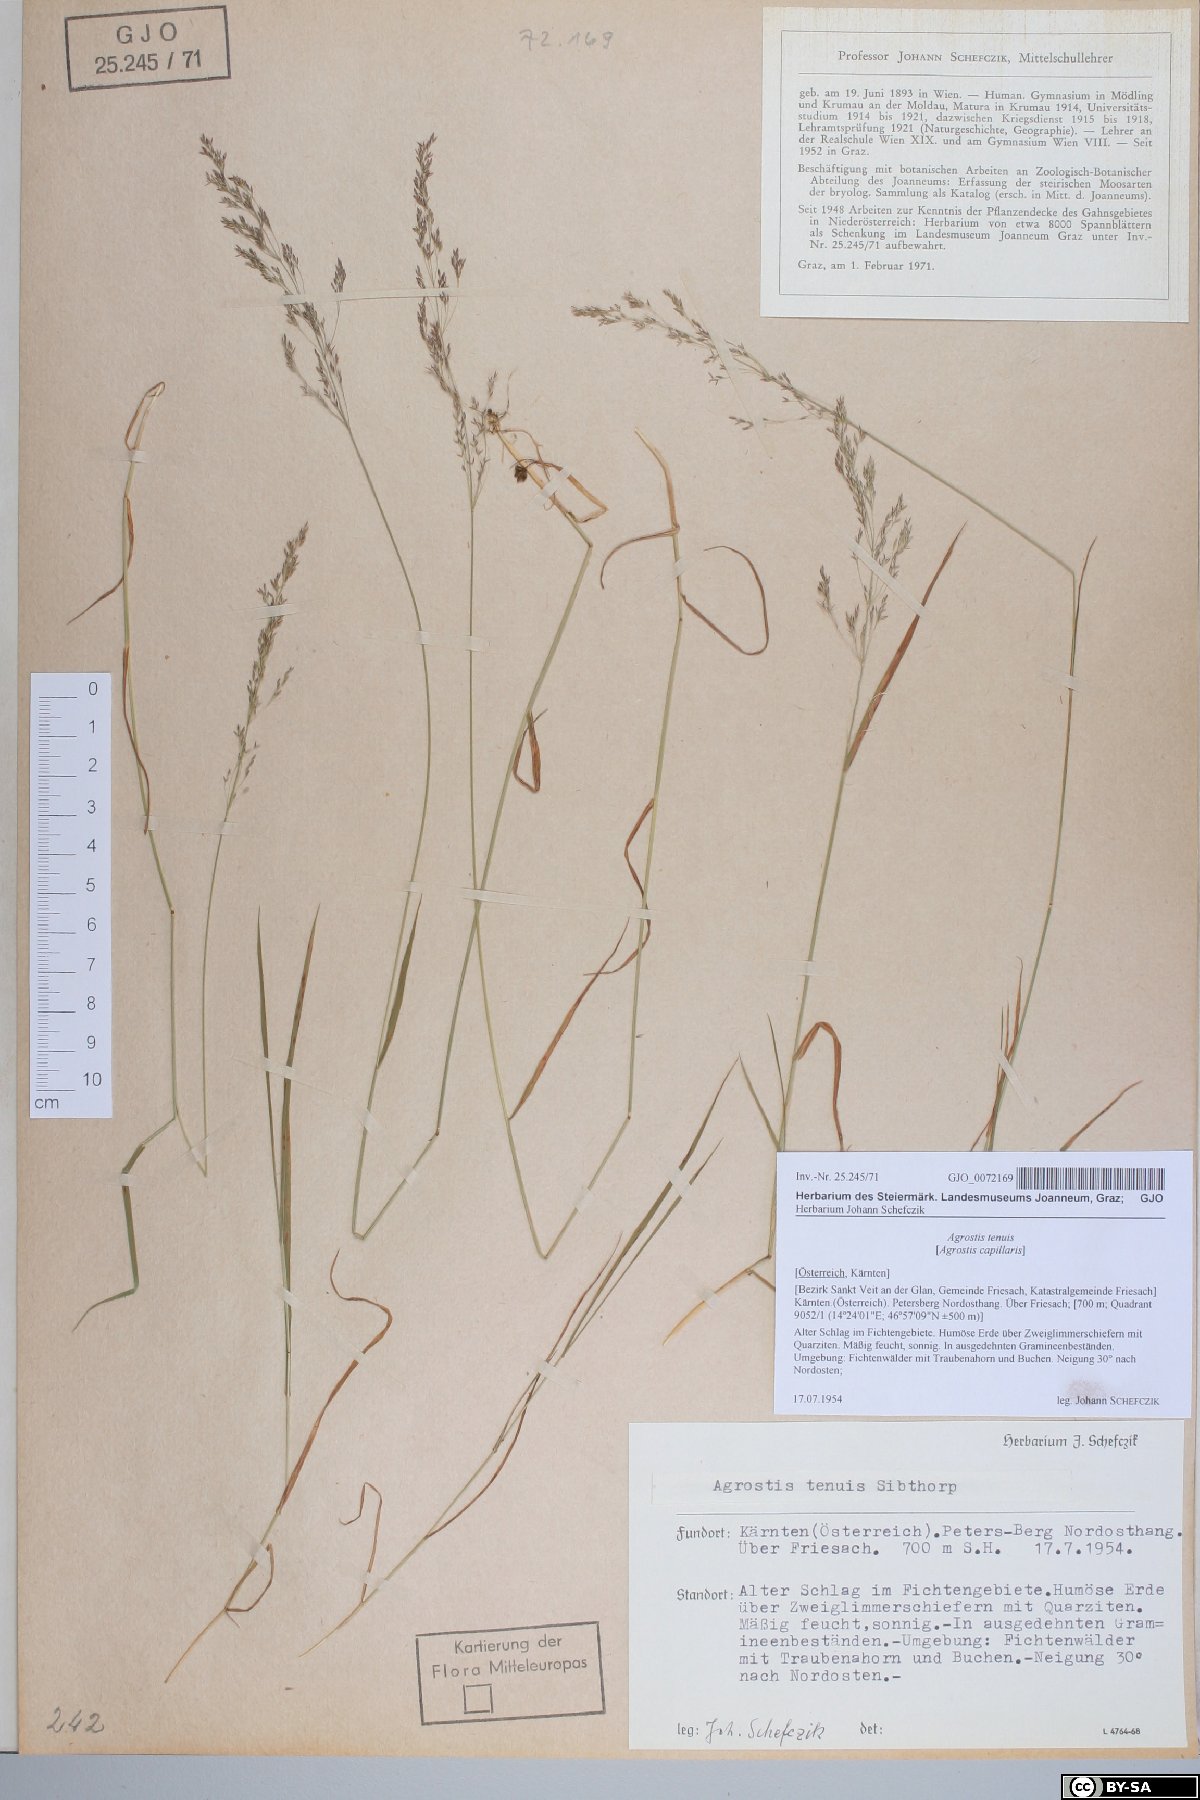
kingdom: Plantae
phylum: Tracheophyta
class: Liliopsida
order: Poales
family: Poaceae
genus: Agrostis
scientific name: Agrostis capillaris
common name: Colonial bentgrass
